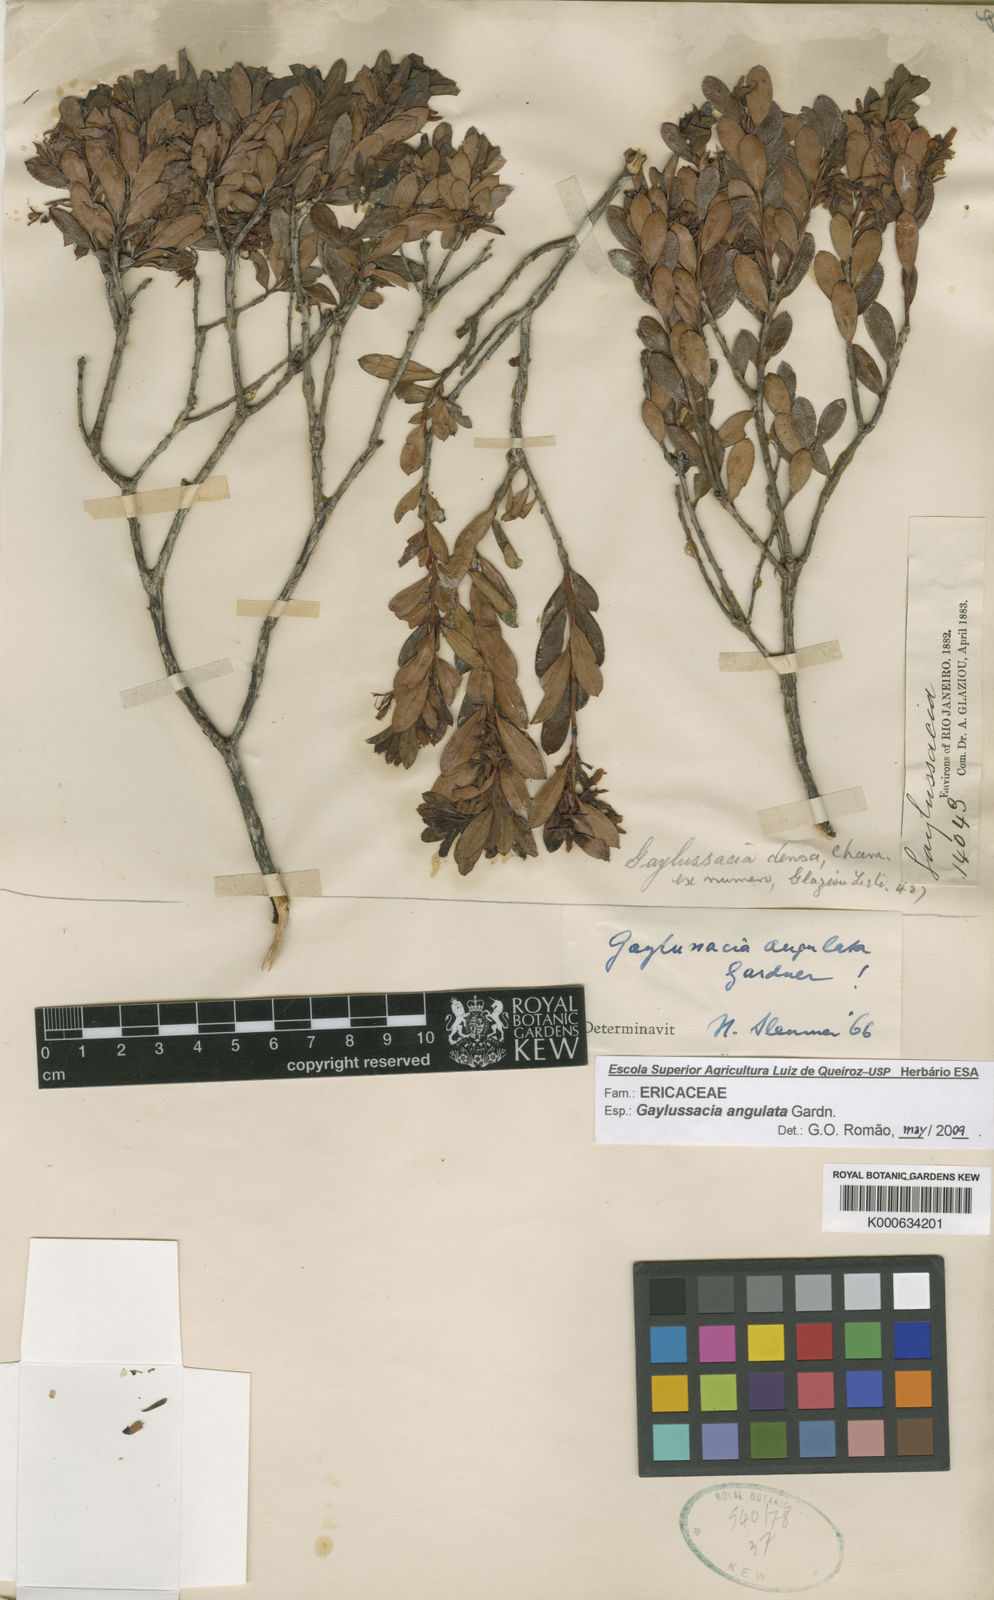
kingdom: Plantae
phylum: Tracheophyta
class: Magnoliopsida
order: Ericales
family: Ericaceae
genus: Gaylussacia
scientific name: Gaylussacia angulata
